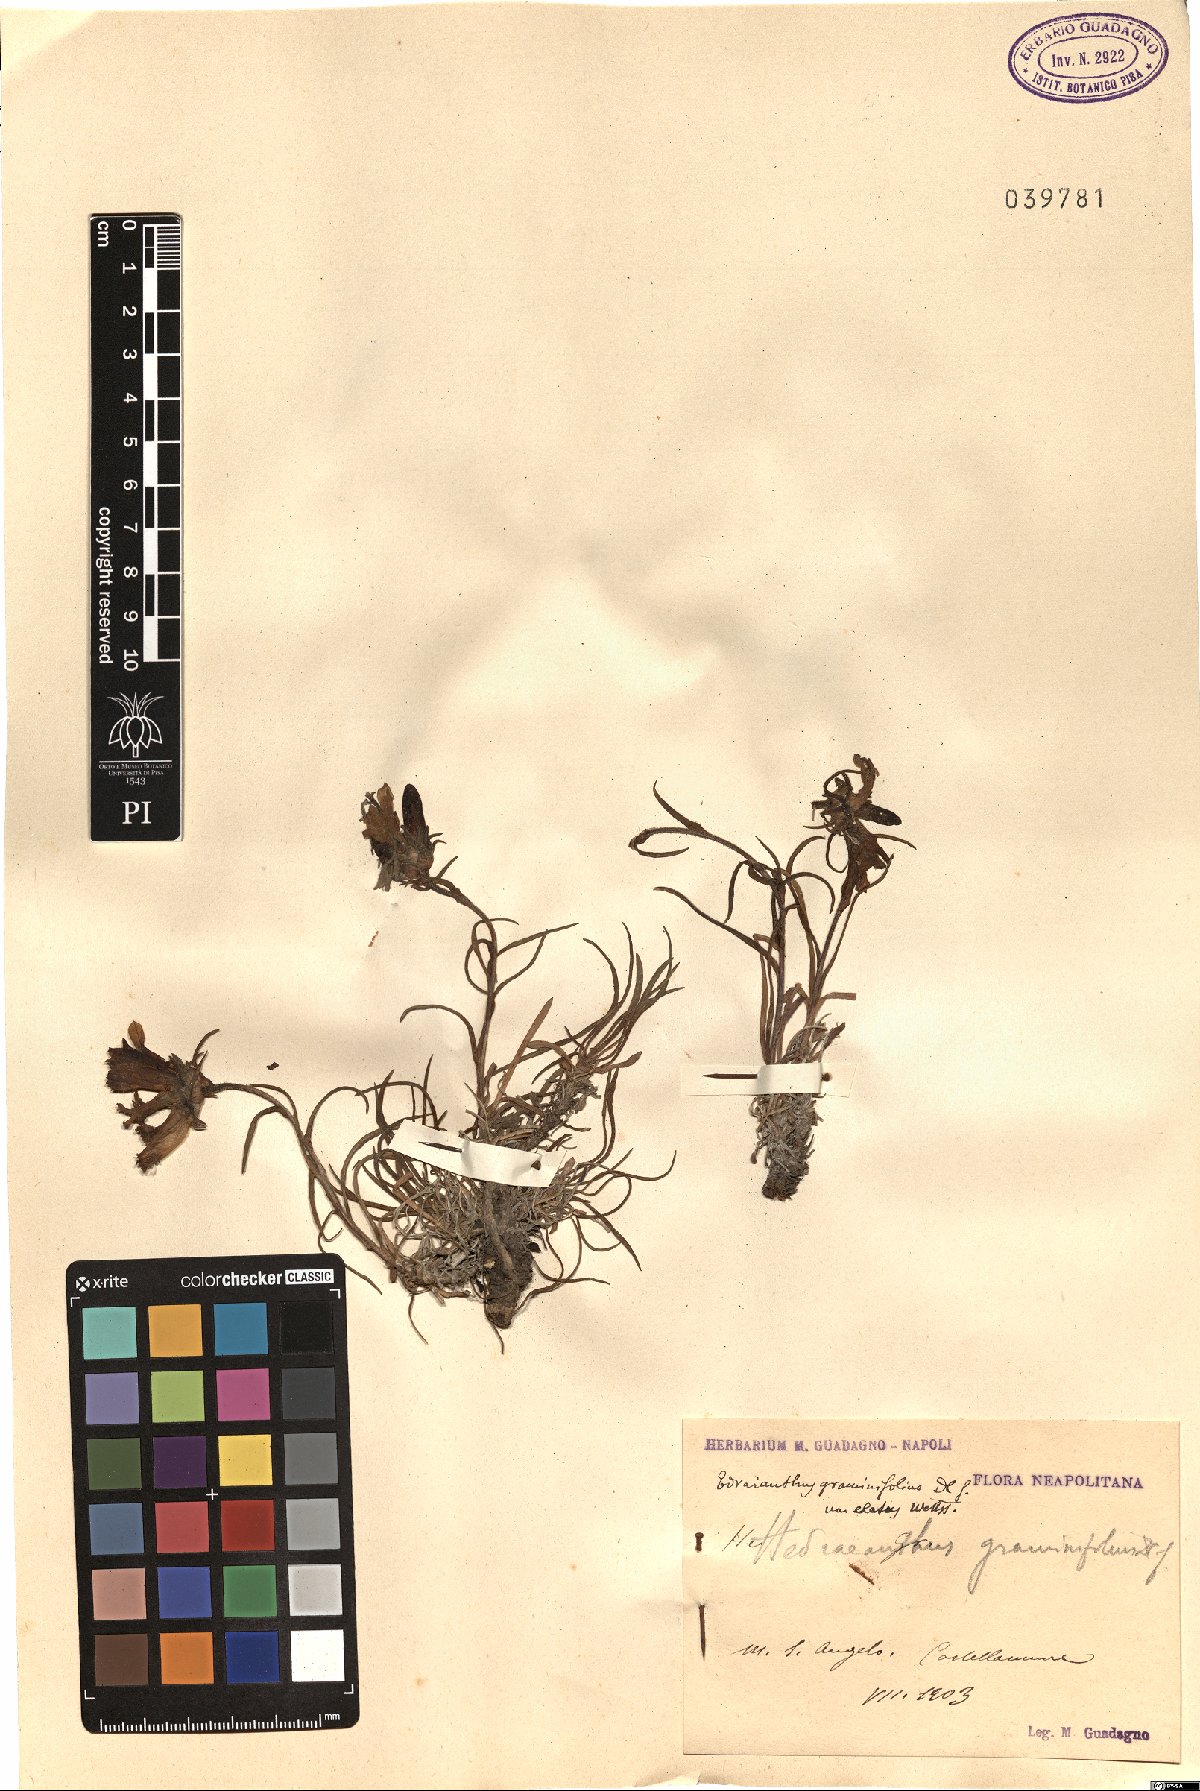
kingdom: Plantae
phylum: Tracheophyta
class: Magnoliopsida
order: Asterales
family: Campanulaceae
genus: Edraianthus
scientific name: Edraianthus graminifolius
